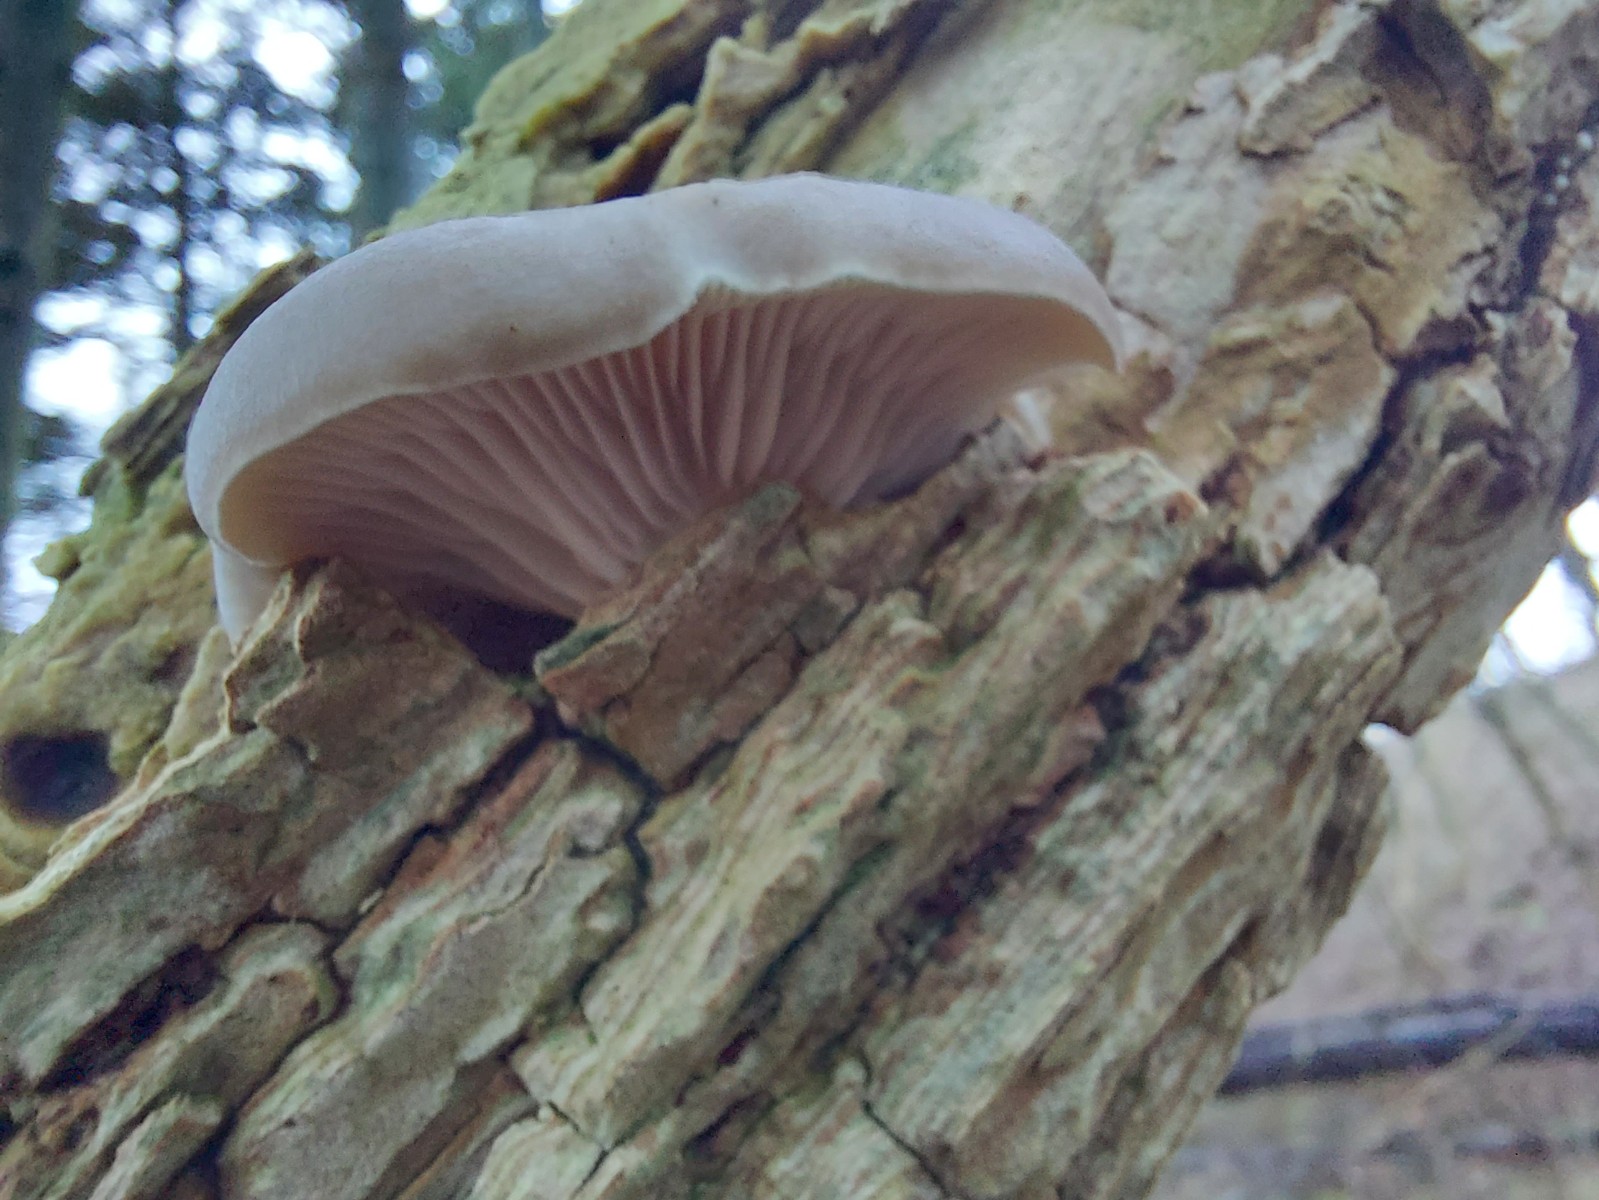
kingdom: Fungi
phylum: Basidiomycota
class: Agaricomycetes
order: Agaricales
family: Pleurotaceae
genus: Pleurotus
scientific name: Pleurotus ostreatus
